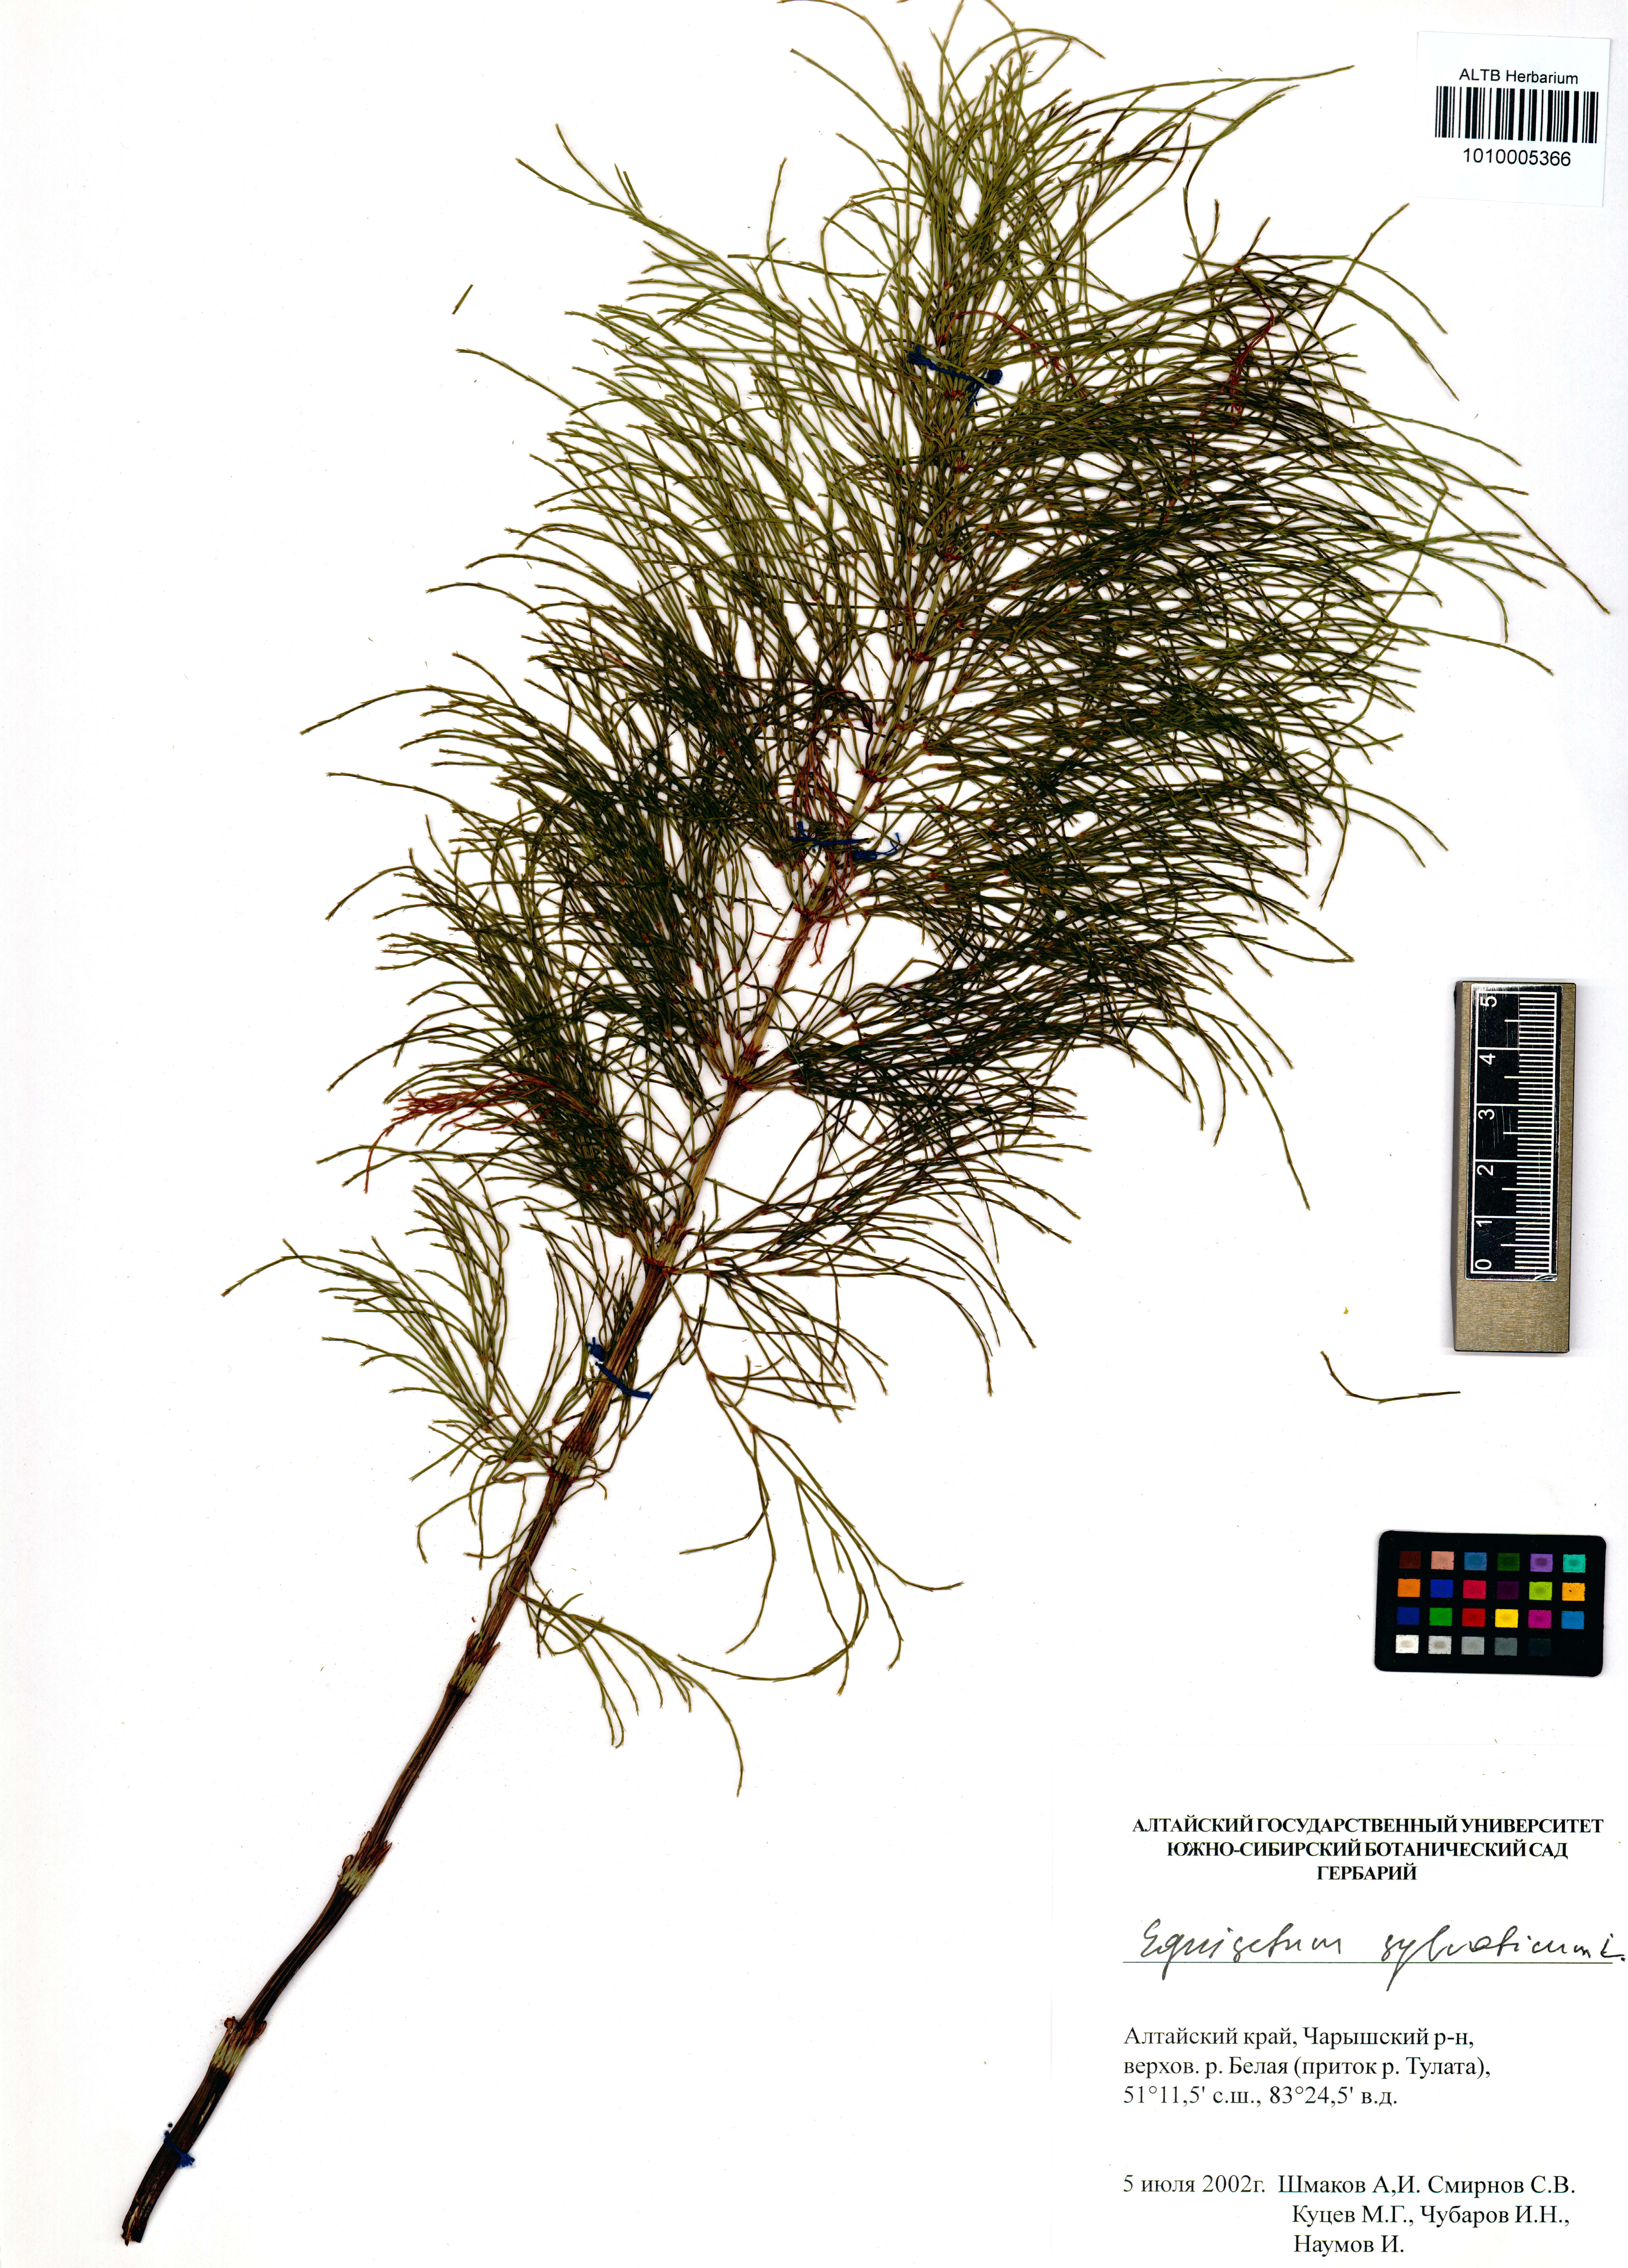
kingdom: Plantae
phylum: Tracheophyta
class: Polypodiopsida
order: Equisetales
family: Equisetaceae
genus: Equisetum
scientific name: Equisetum sylvaticum
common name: Wood horsetail
